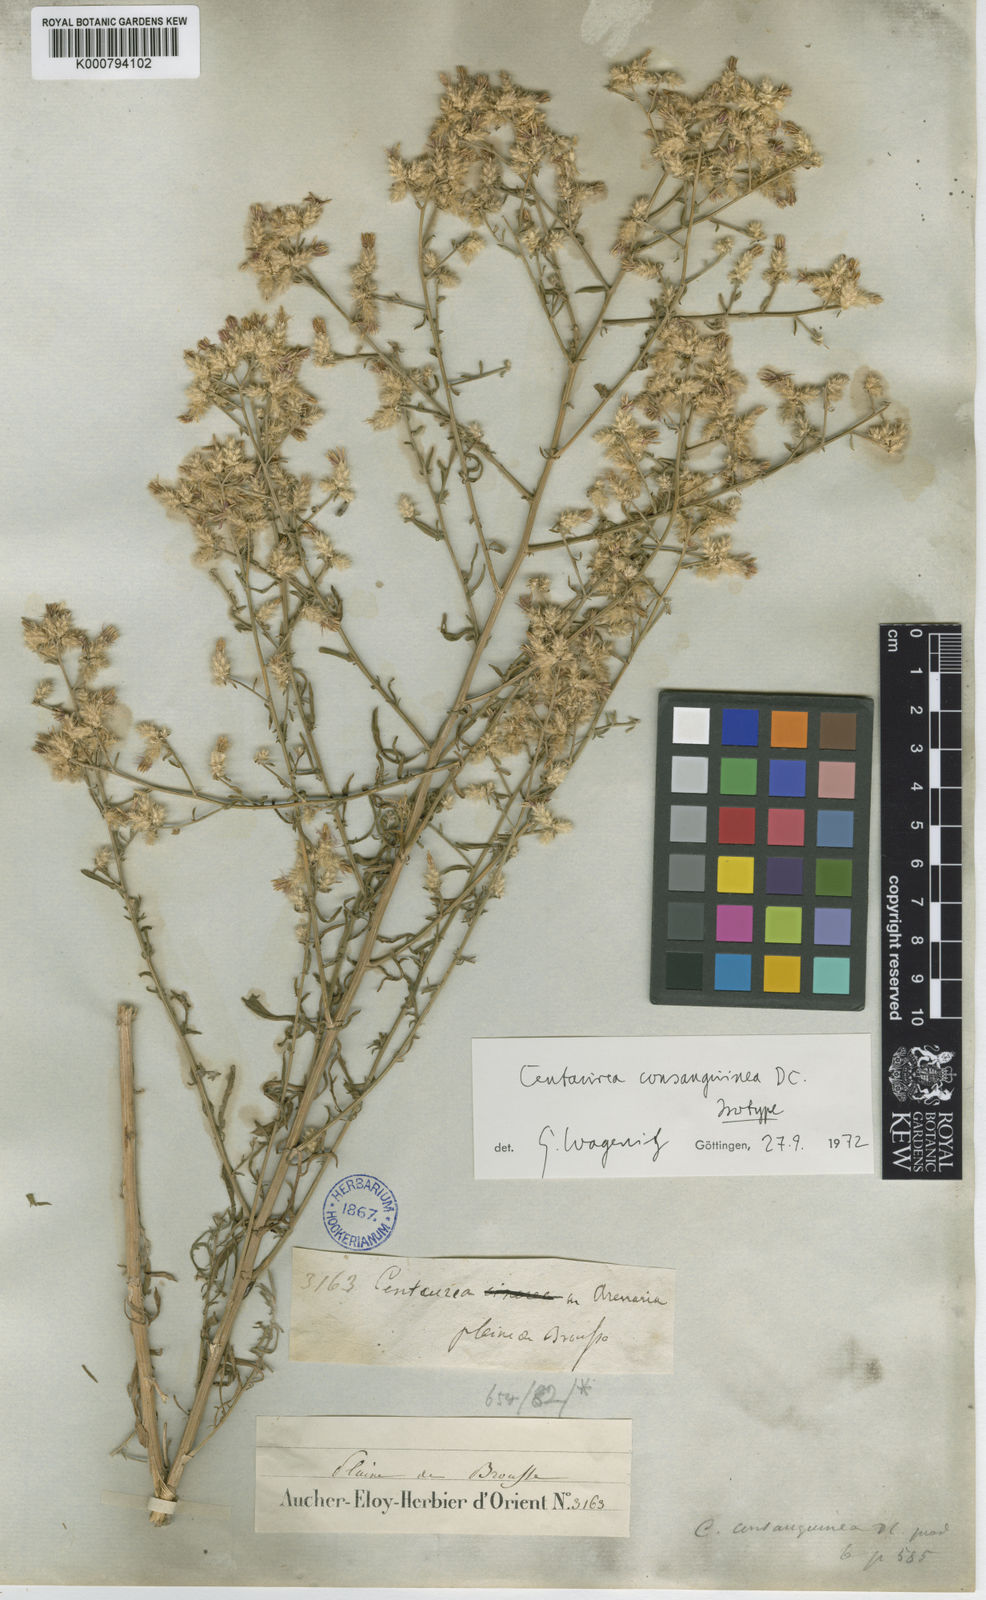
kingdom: Plantae
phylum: Tracheophyta
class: Magnoliopsida
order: Asterales
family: Asteraceae
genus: Centaurea
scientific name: Centaurea consanguinea
